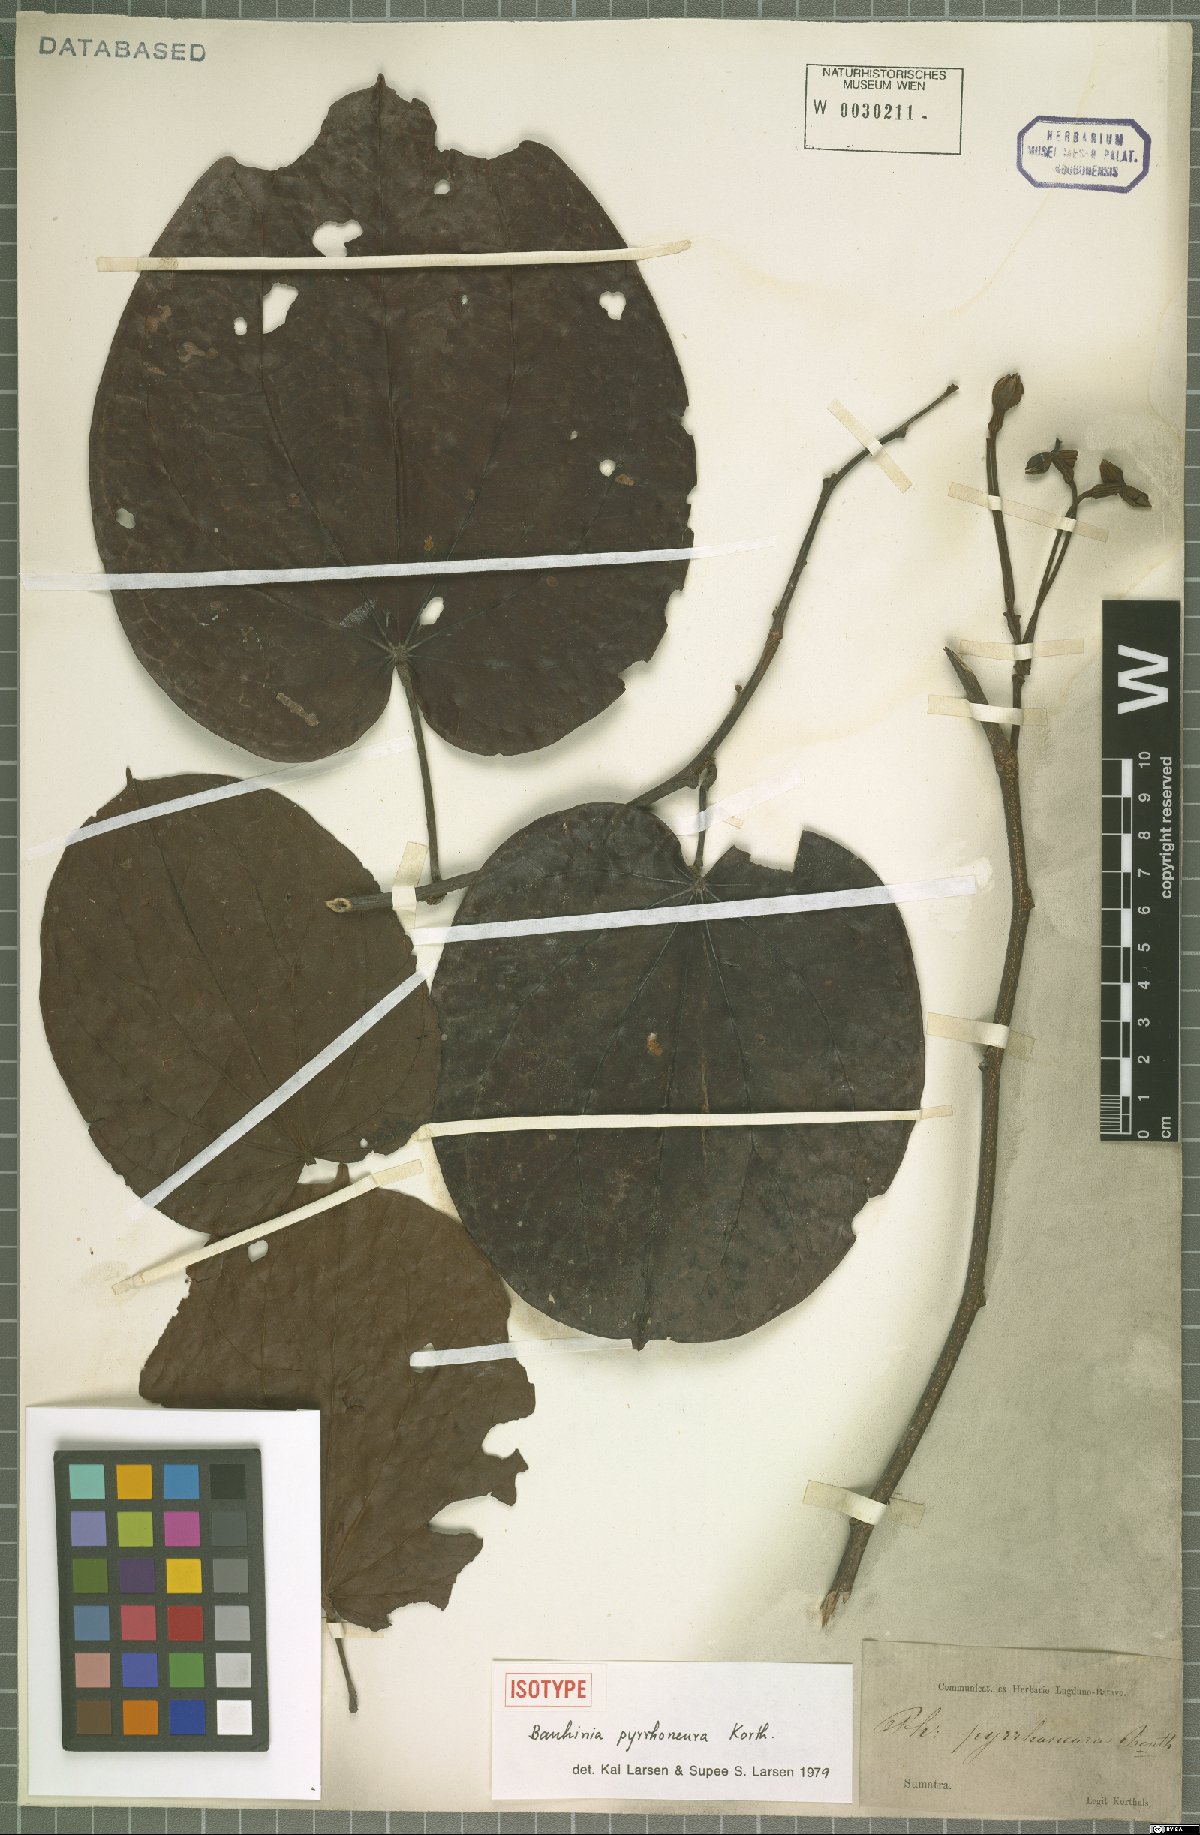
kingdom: Plantae
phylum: Tracheophyta
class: Magnoliopsida
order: Fabales
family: Fabaceae
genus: Phanera
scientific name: Phanera pyrrhoneura
